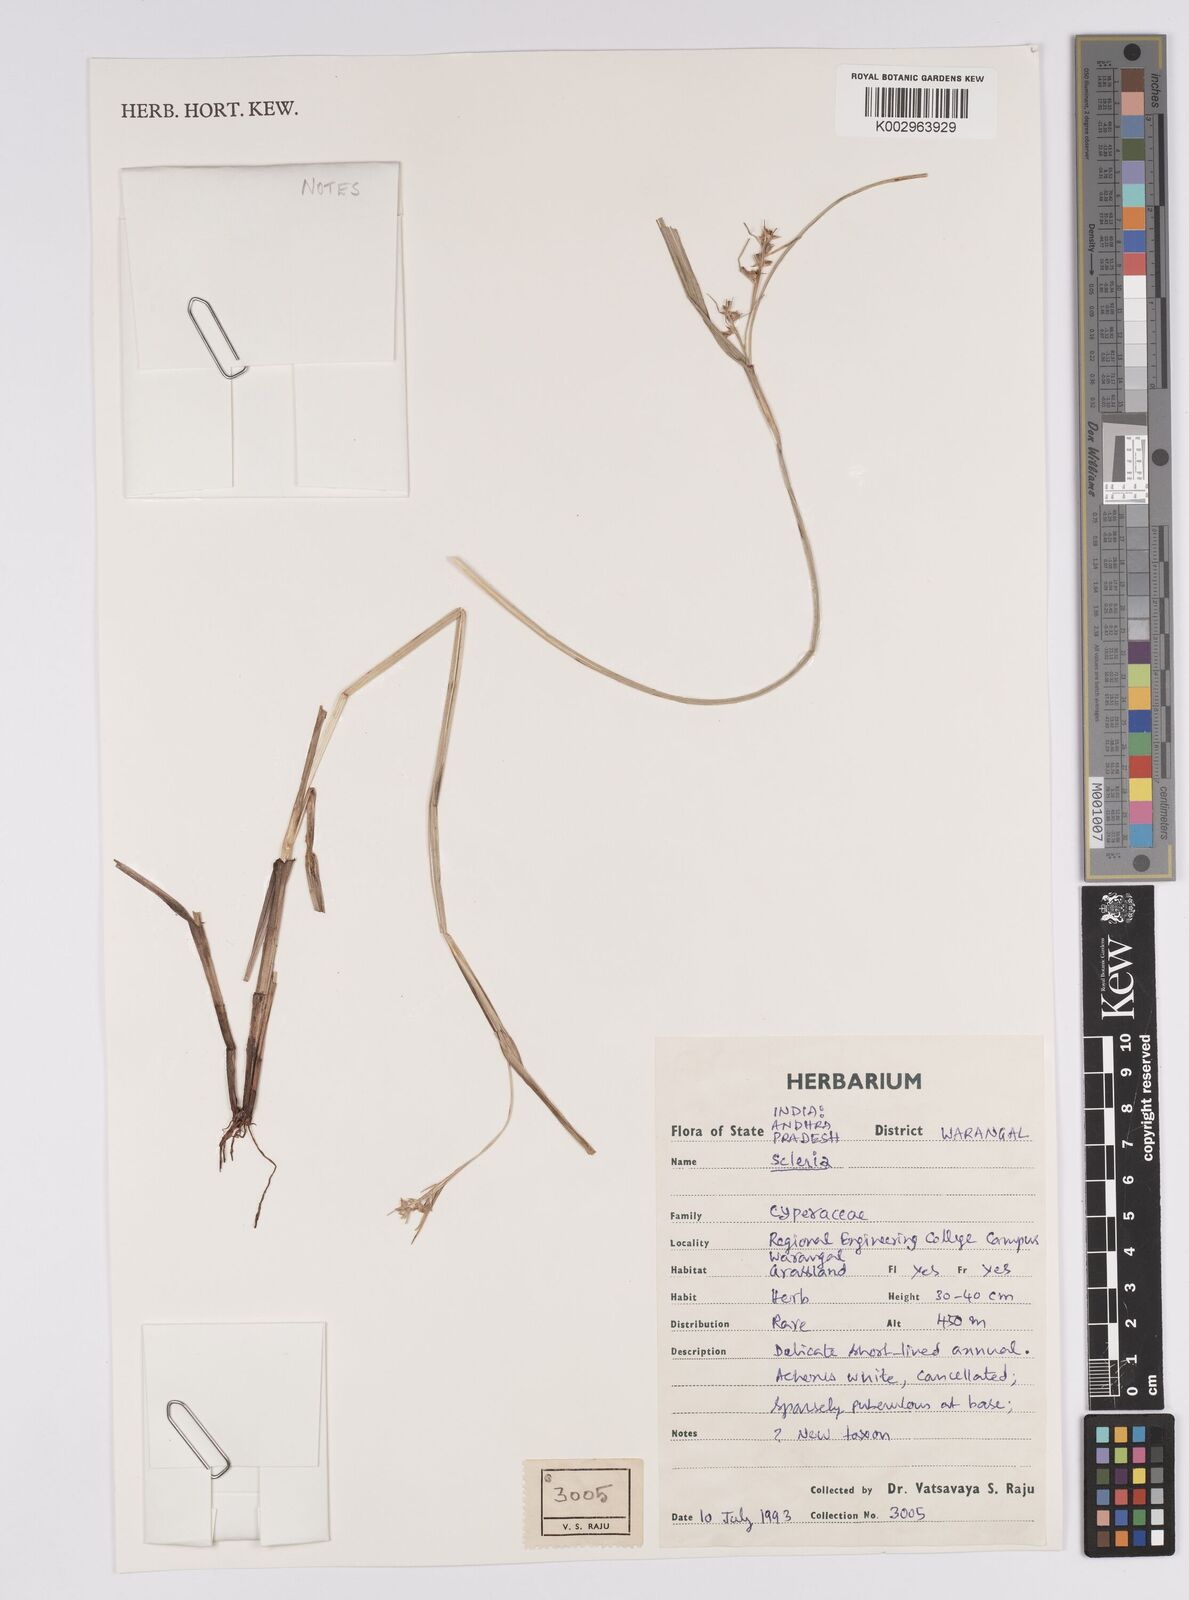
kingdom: Plantae
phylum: Tracheophyta
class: Liliopsida
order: Poales
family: Cyperaceae
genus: Scleria
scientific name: Scleria
